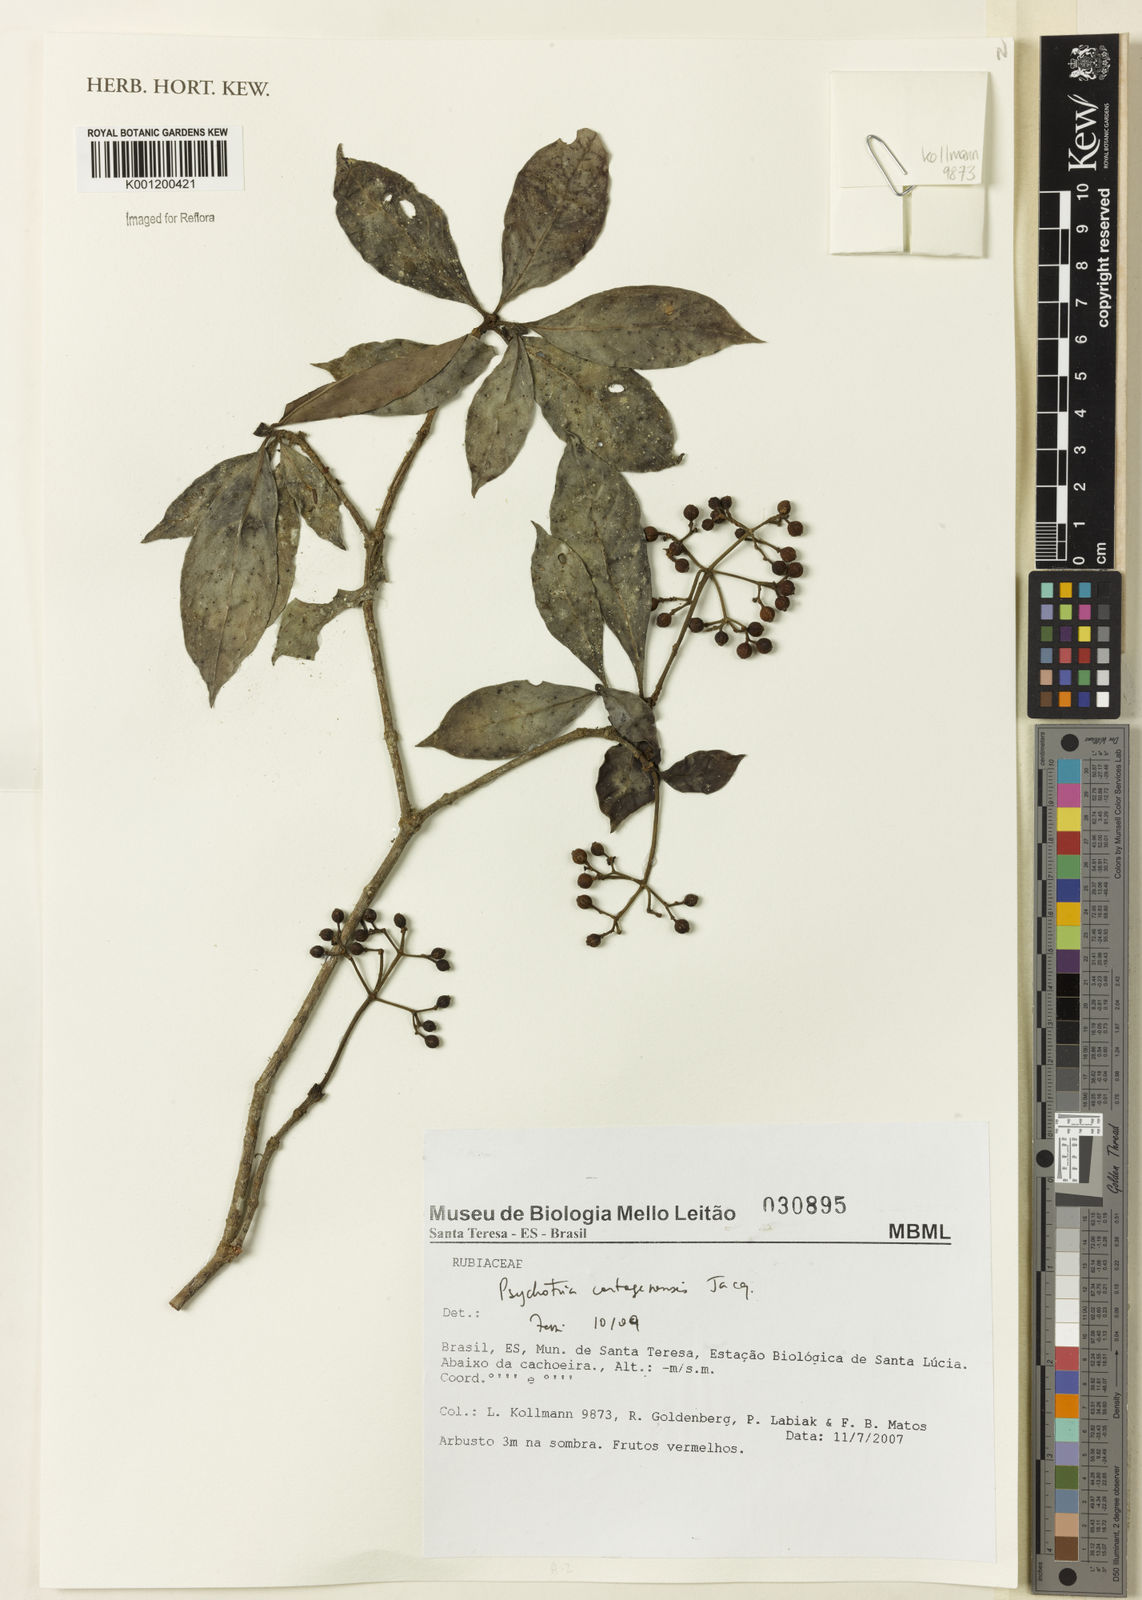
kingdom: Plantae
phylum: Tracheophyta
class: Magnoliopsida
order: Gentianales
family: Rubiaceae
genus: Psychotria
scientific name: Psychotria carthagenensis
